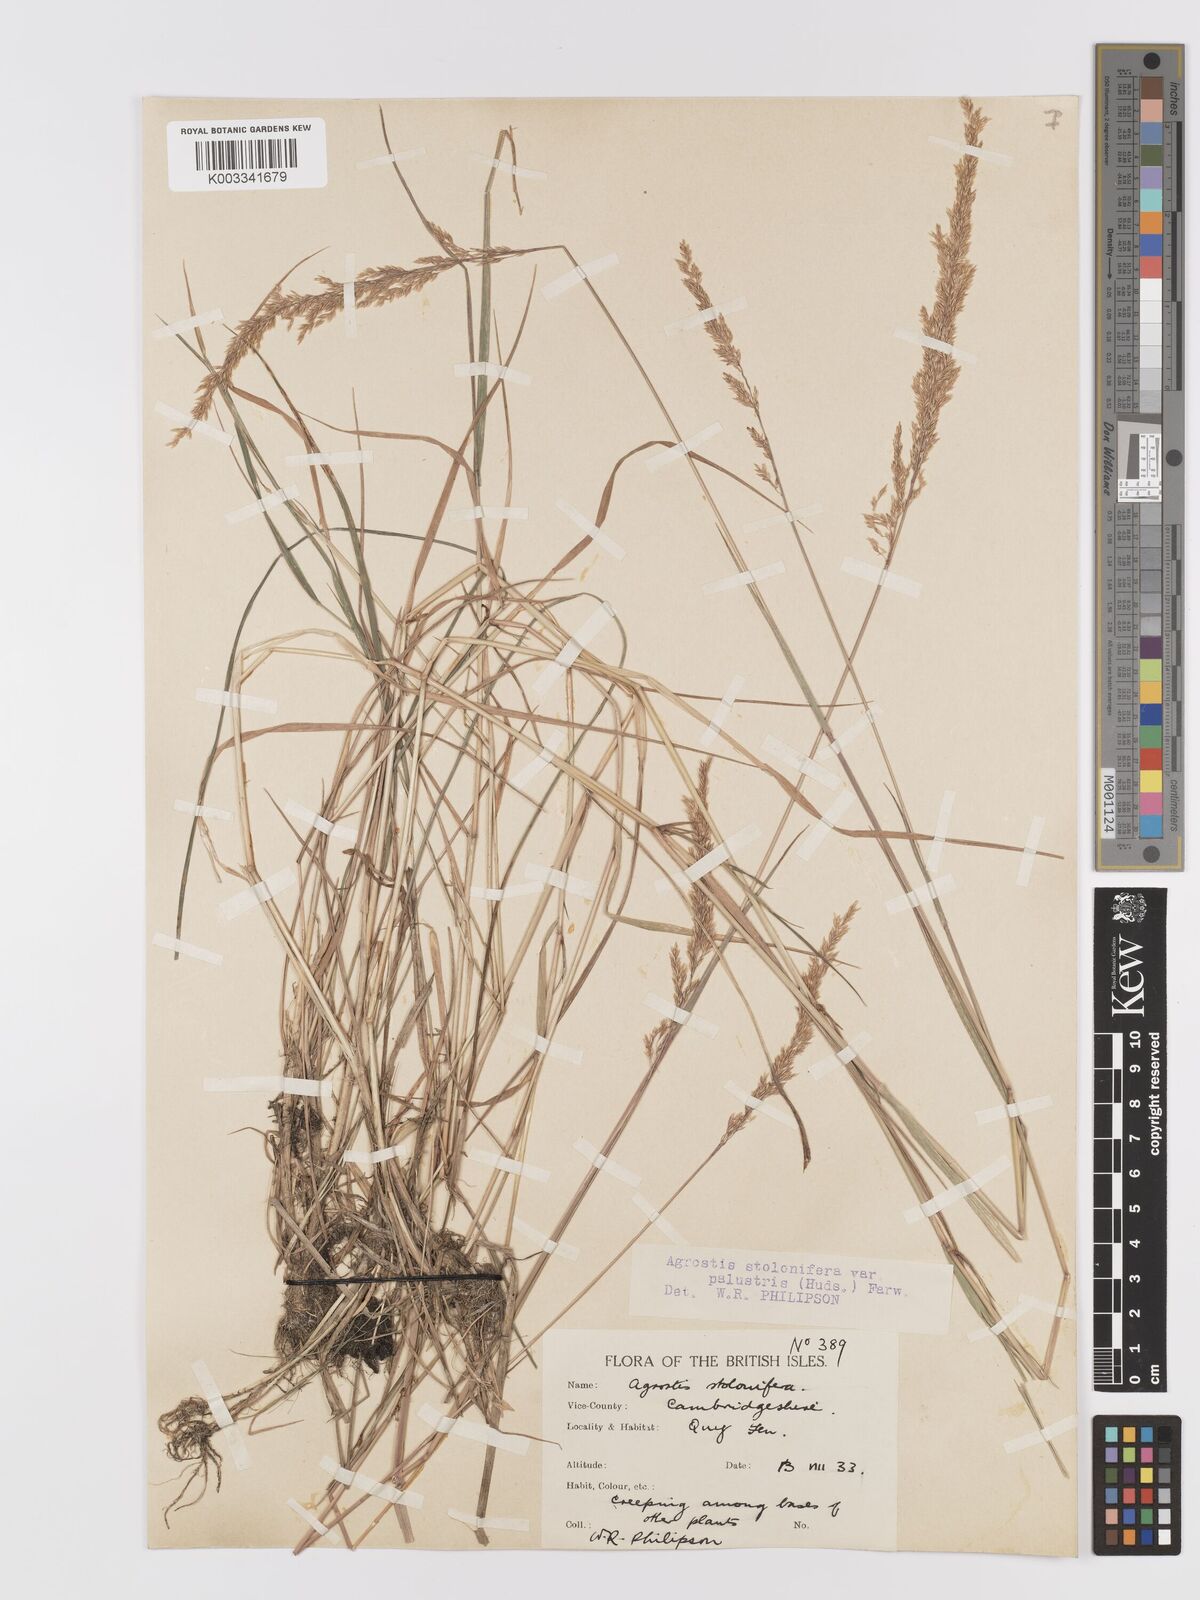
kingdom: Plantae
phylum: Tracheophyta
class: Liliopsida
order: Poales
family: Poaceae
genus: Agrostis
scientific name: Agrostis stolonifera
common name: Creeping bentgrass
